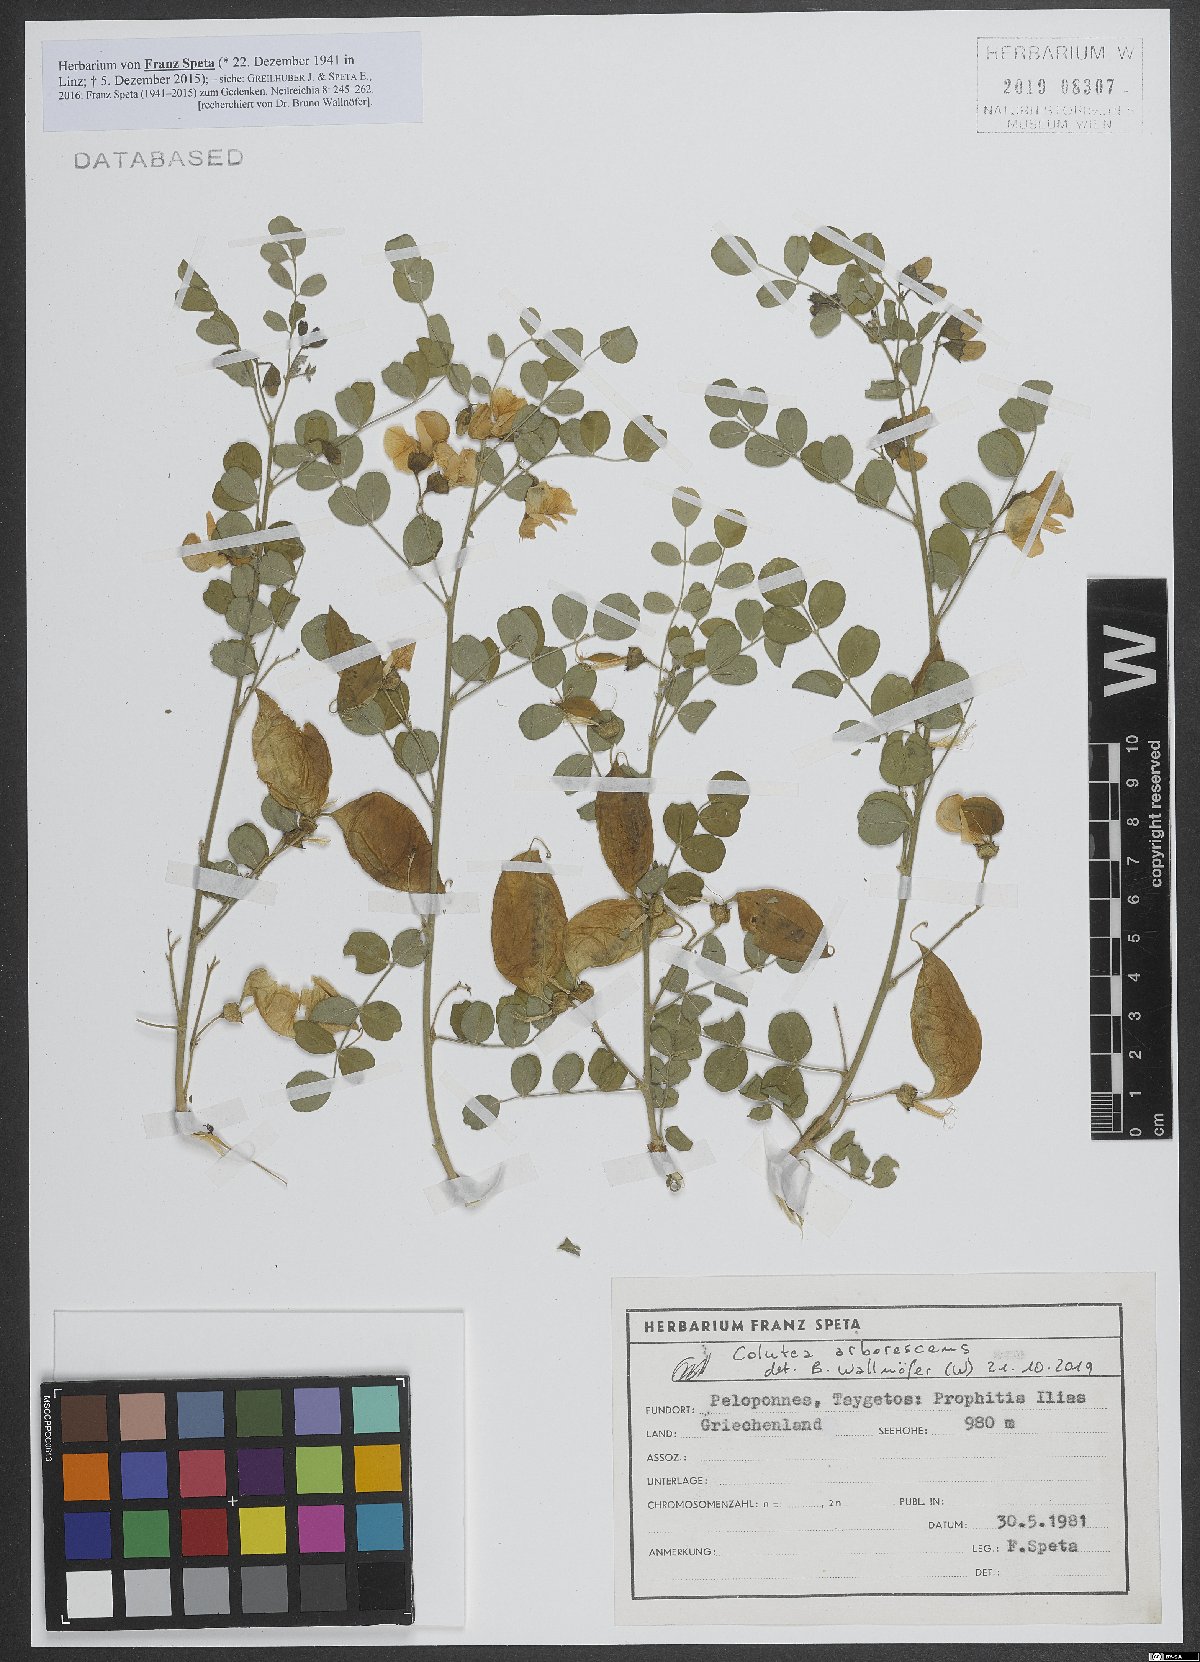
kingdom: Plantae
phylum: Tracheophyta
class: Magnoliopsida
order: Fabales
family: Fabaceae
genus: Colutea
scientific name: Colutea arborescens
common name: Bladder-senna
